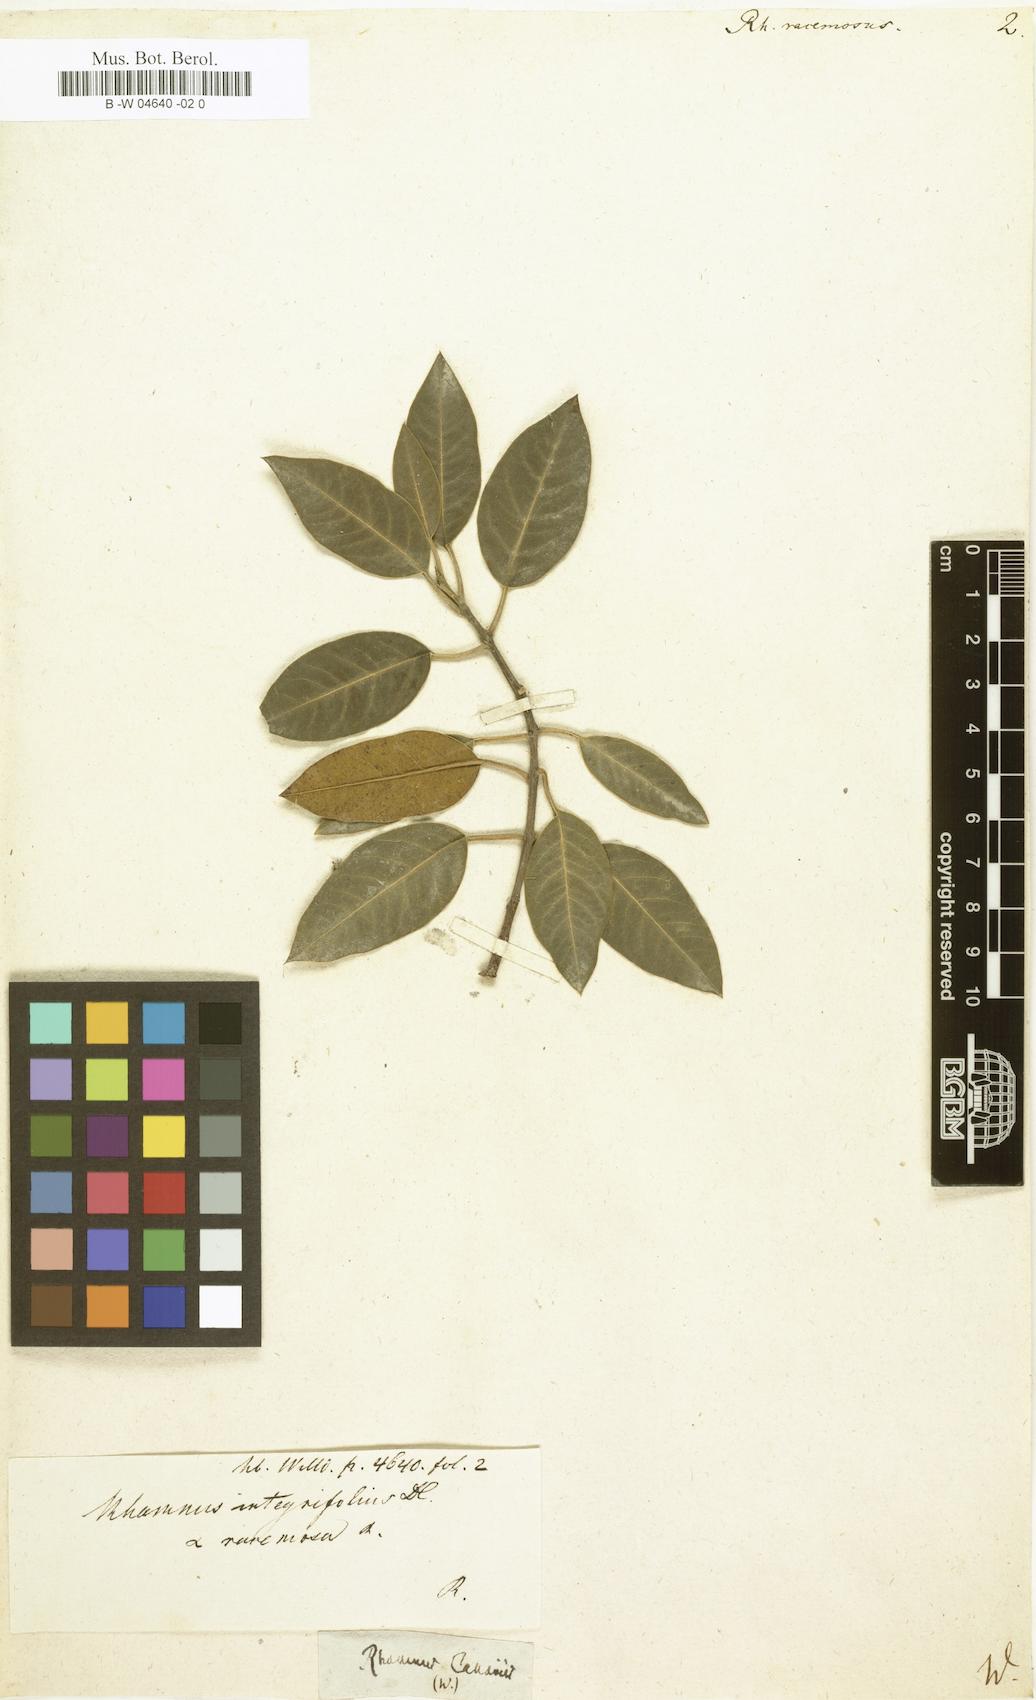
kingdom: Plantae
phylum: Tracheophyta
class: Magnoliopsida
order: Rosales
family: Rhamnaceae
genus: Rhamnus
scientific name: Rhamnus alaternus
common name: Mediterranean buckthorn
